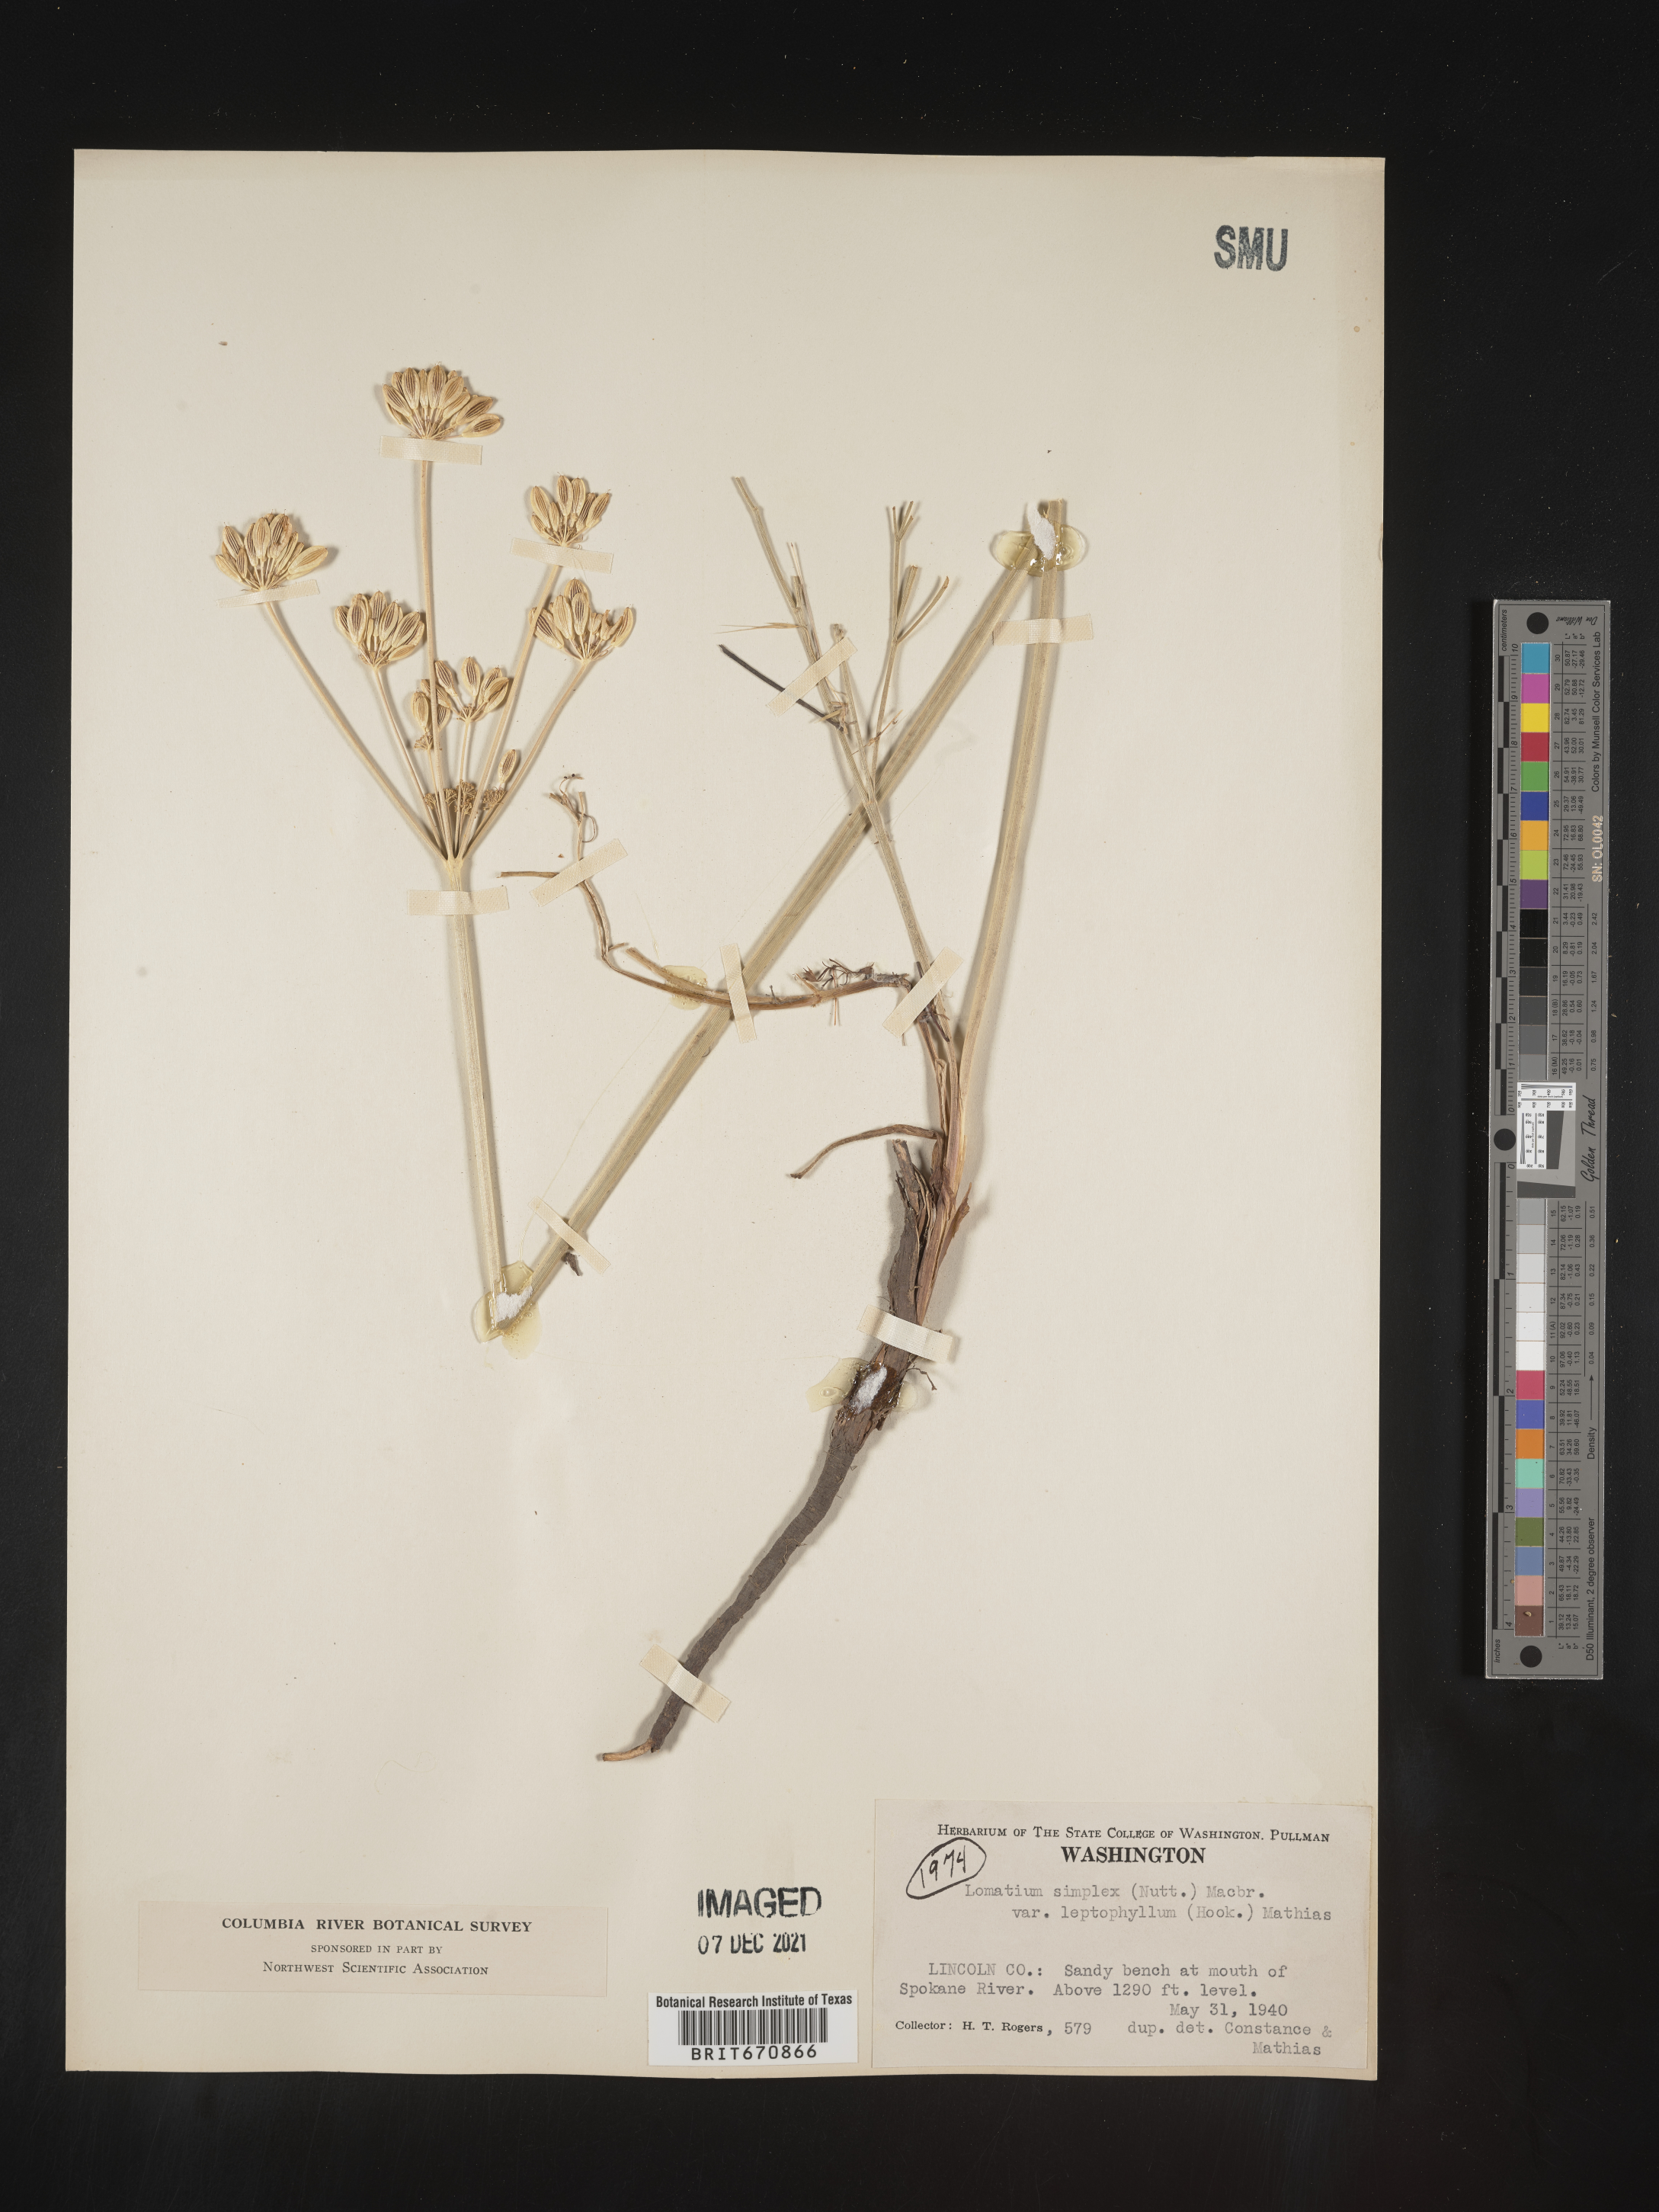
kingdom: Plantae
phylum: Tracheophyta
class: Magnoliopsida
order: Apiales
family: Apiaceae
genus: Lomatium
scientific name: Lomatium simplex
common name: Great basin biscuitroot
